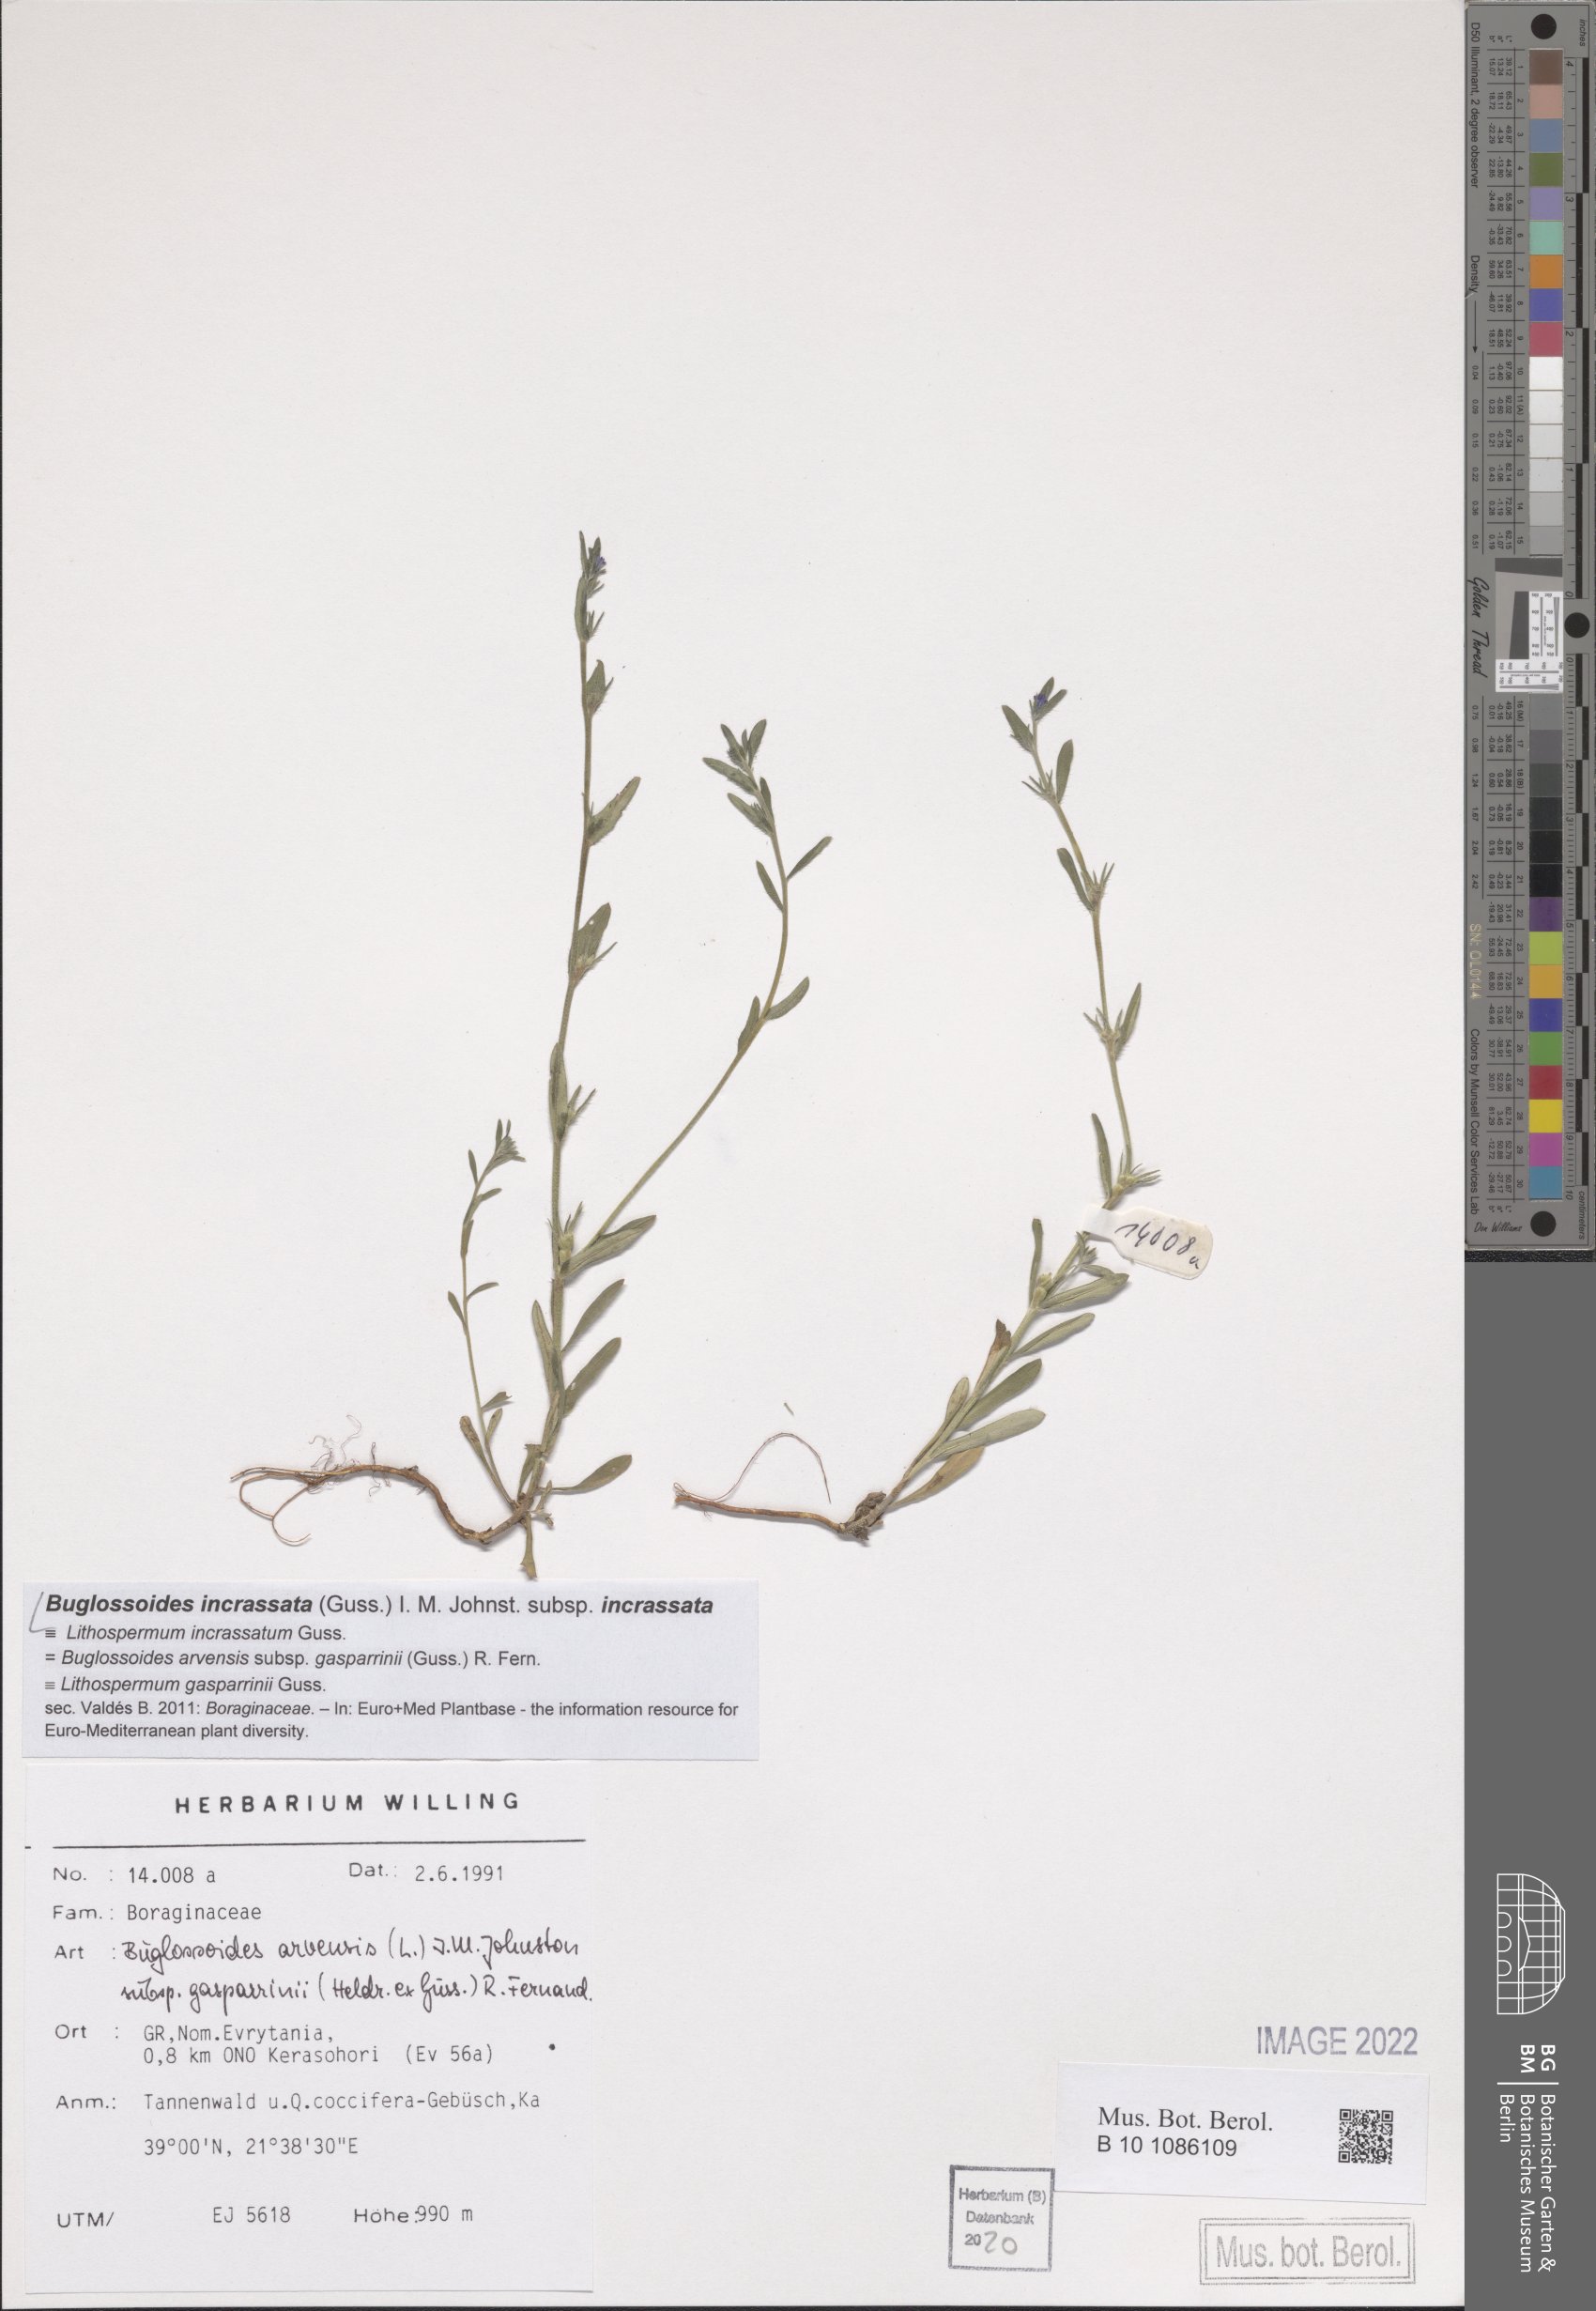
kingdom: Plantae
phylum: Tracheophyta
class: Magnoliopsida
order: Boraginales
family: Boraginaceae
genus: Buglossoides
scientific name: Buglossoides incrassata
